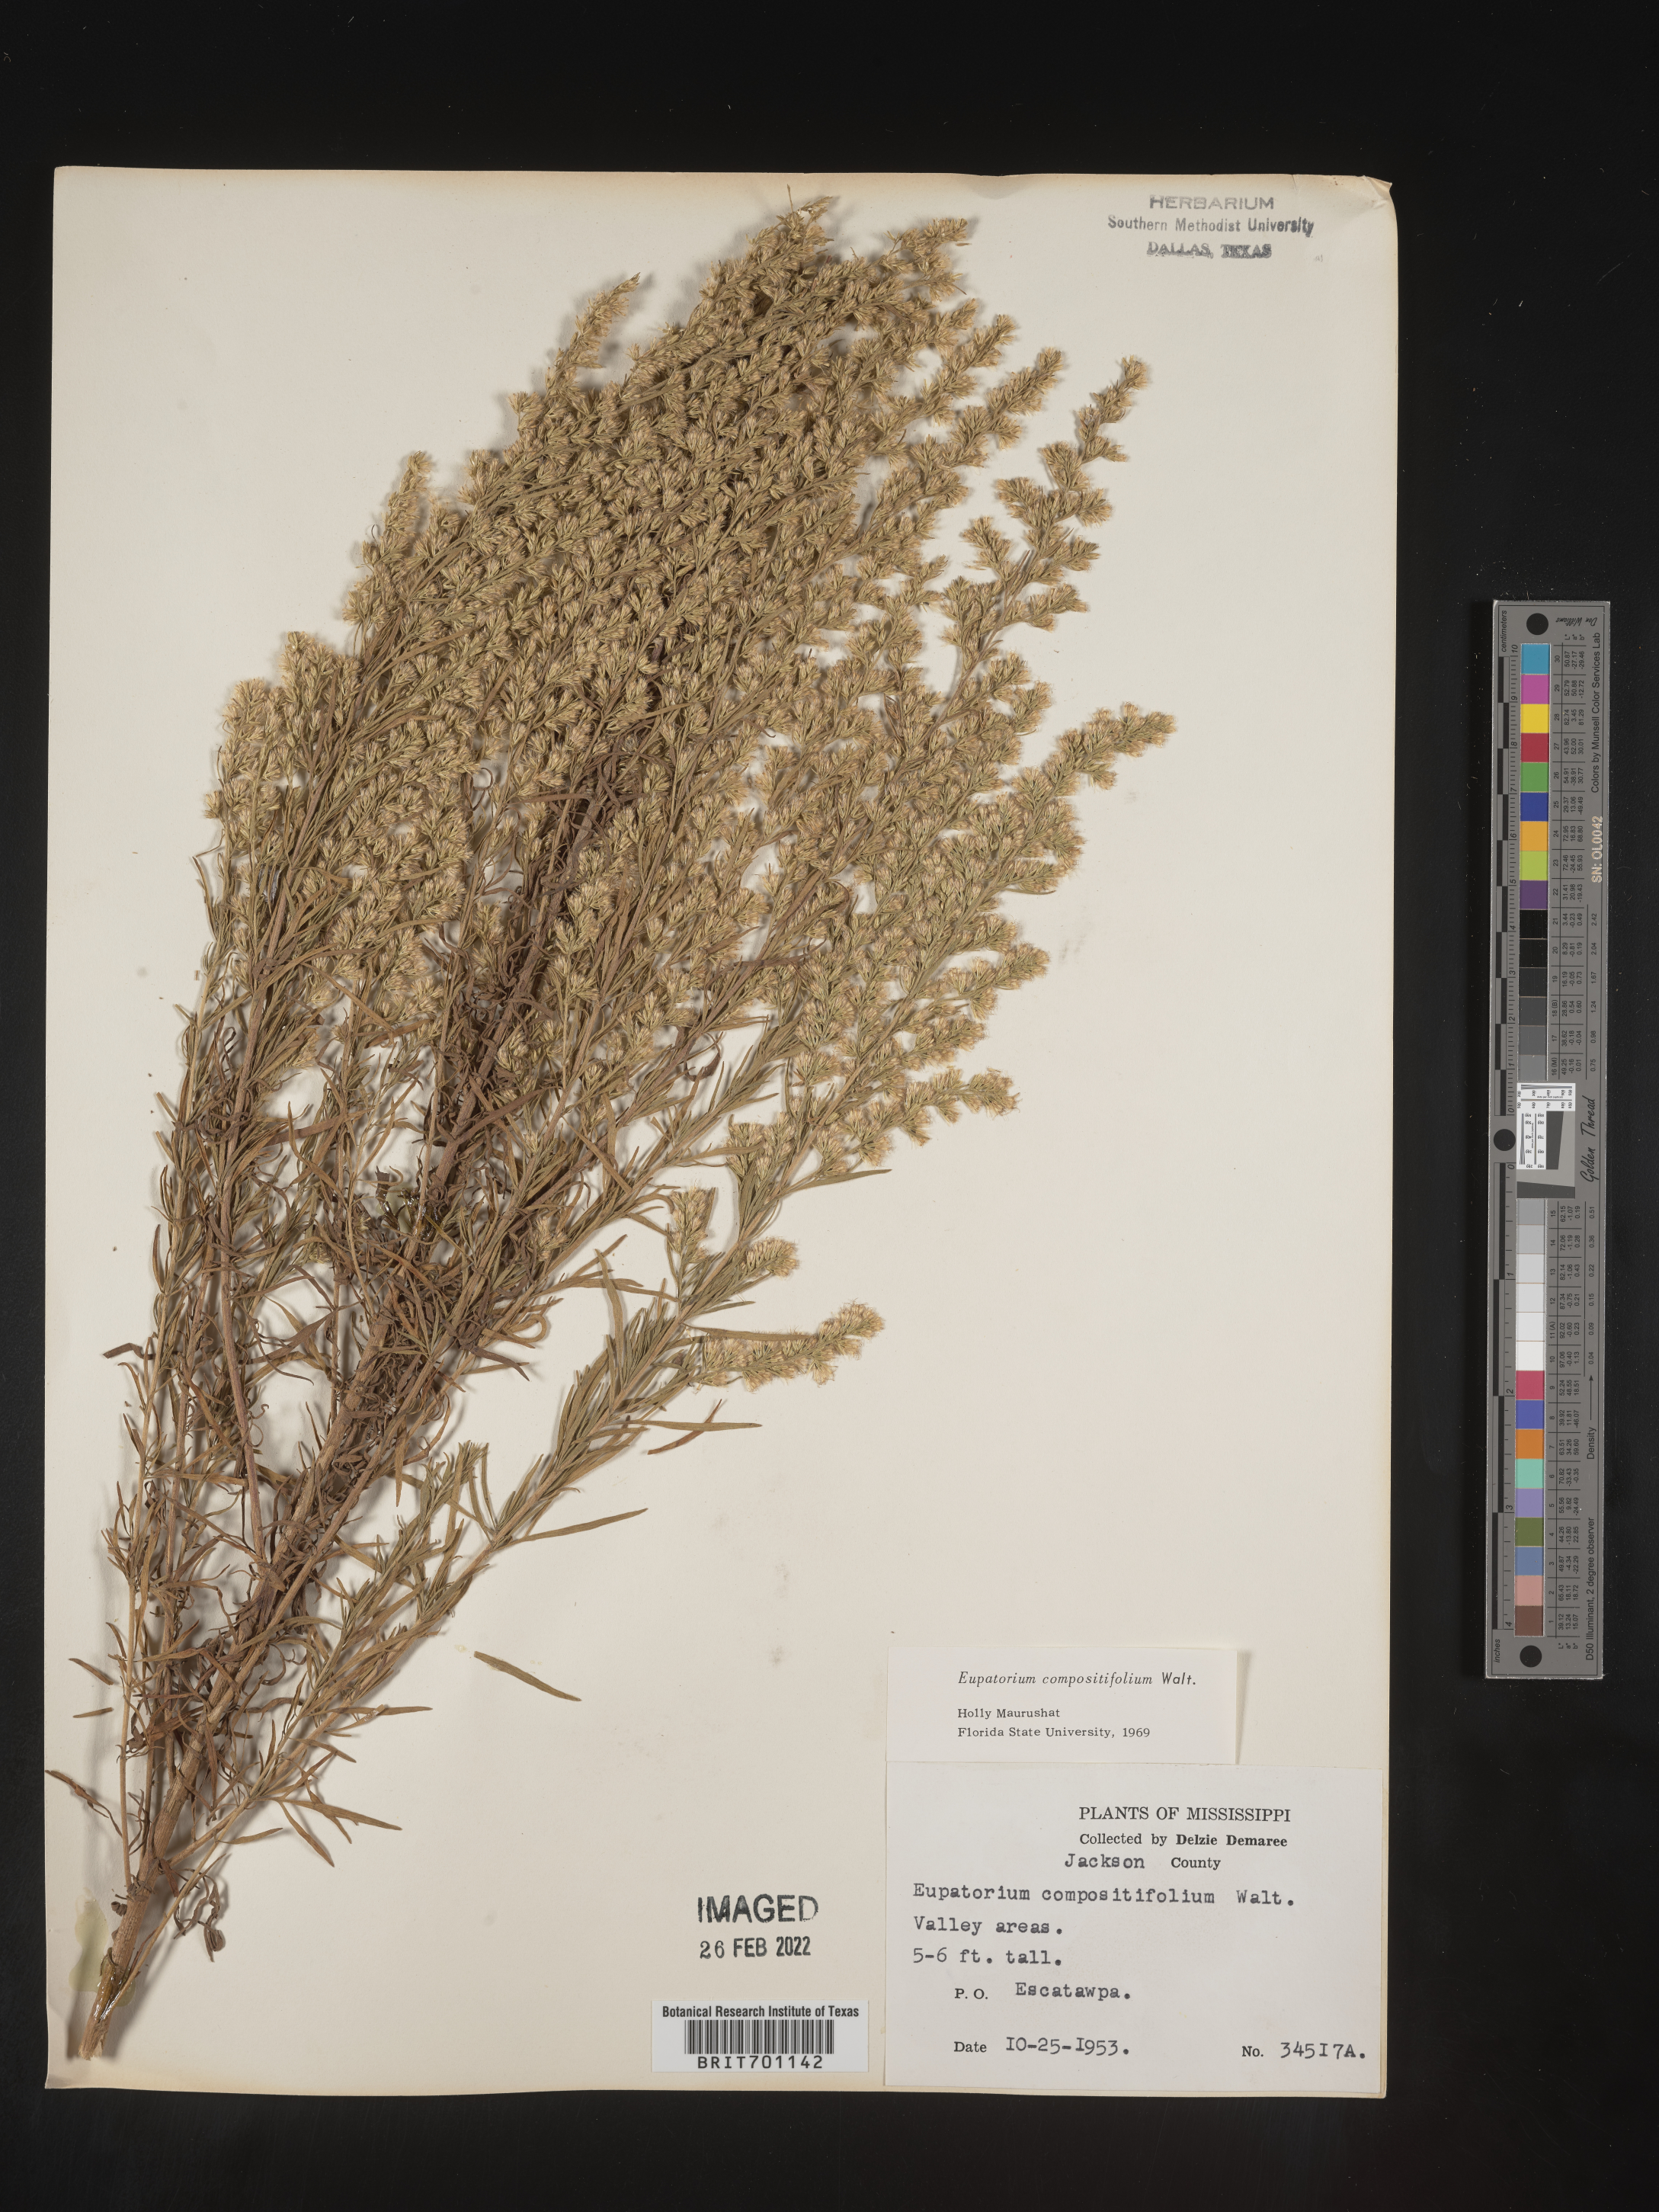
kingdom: Plantae
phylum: Tracheophyta
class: Magnoliopsida
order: Asterales
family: Asteraceae
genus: Eupatorium
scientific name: Eupatorium compositifolium
